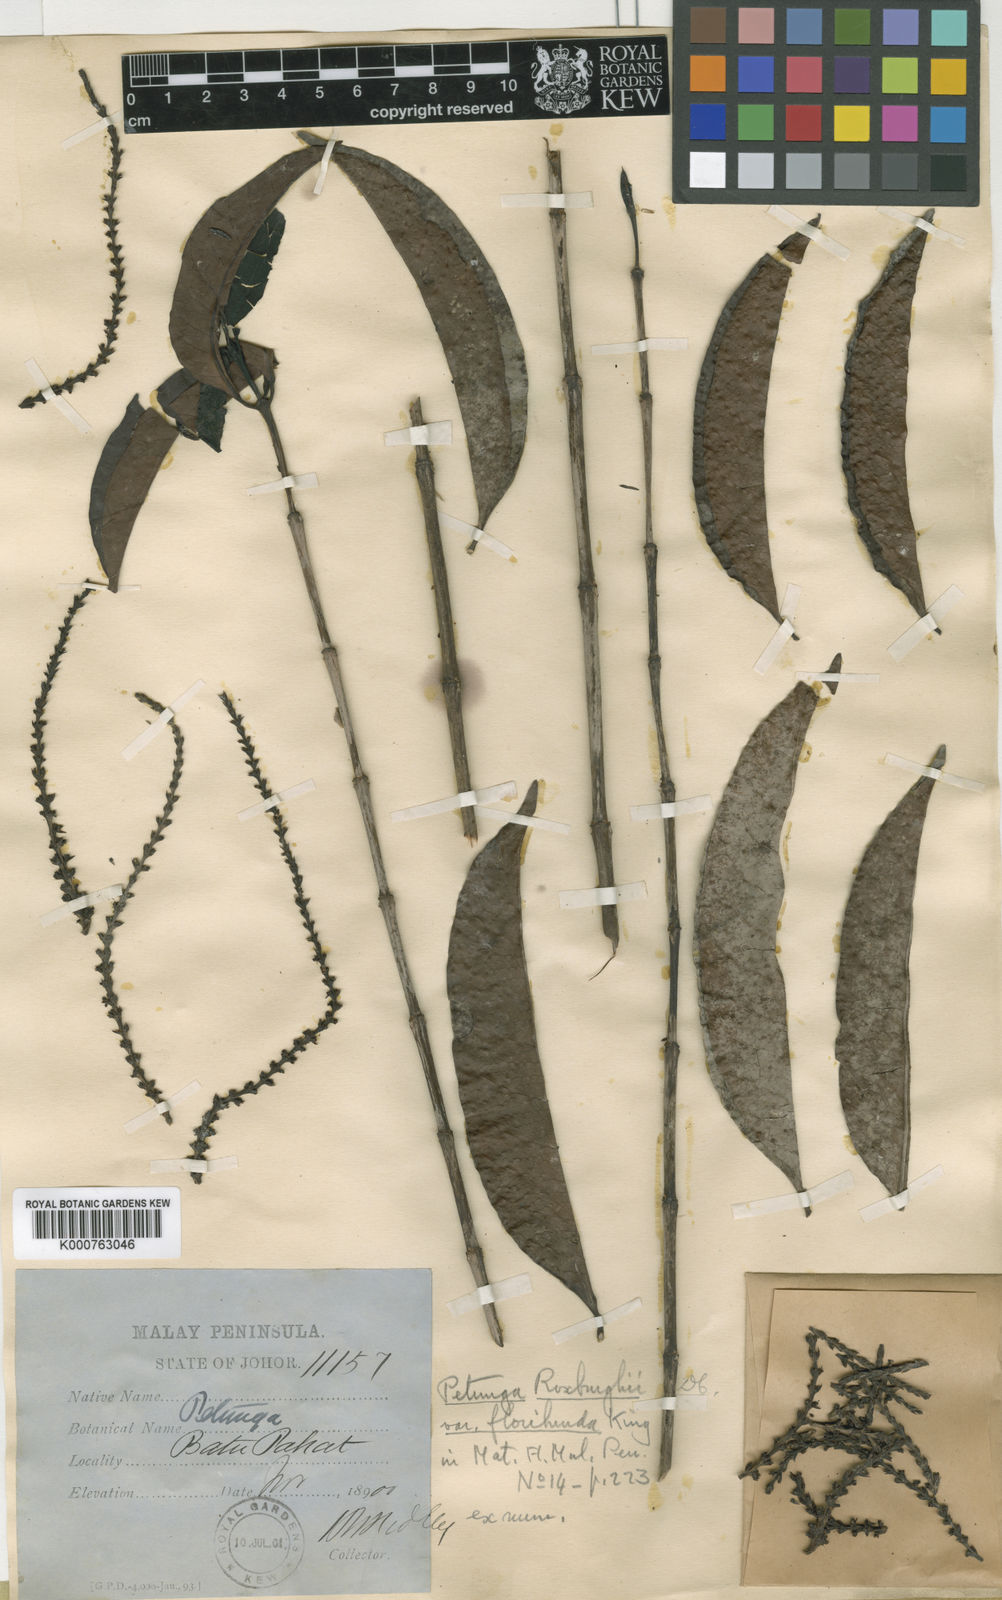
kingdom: Plantae
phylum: Tracheophyta
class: Magnoliopsida
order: Gentianales
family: Rubiaceae
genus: Hypobathrum
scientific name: Hypobathrum racemosum
